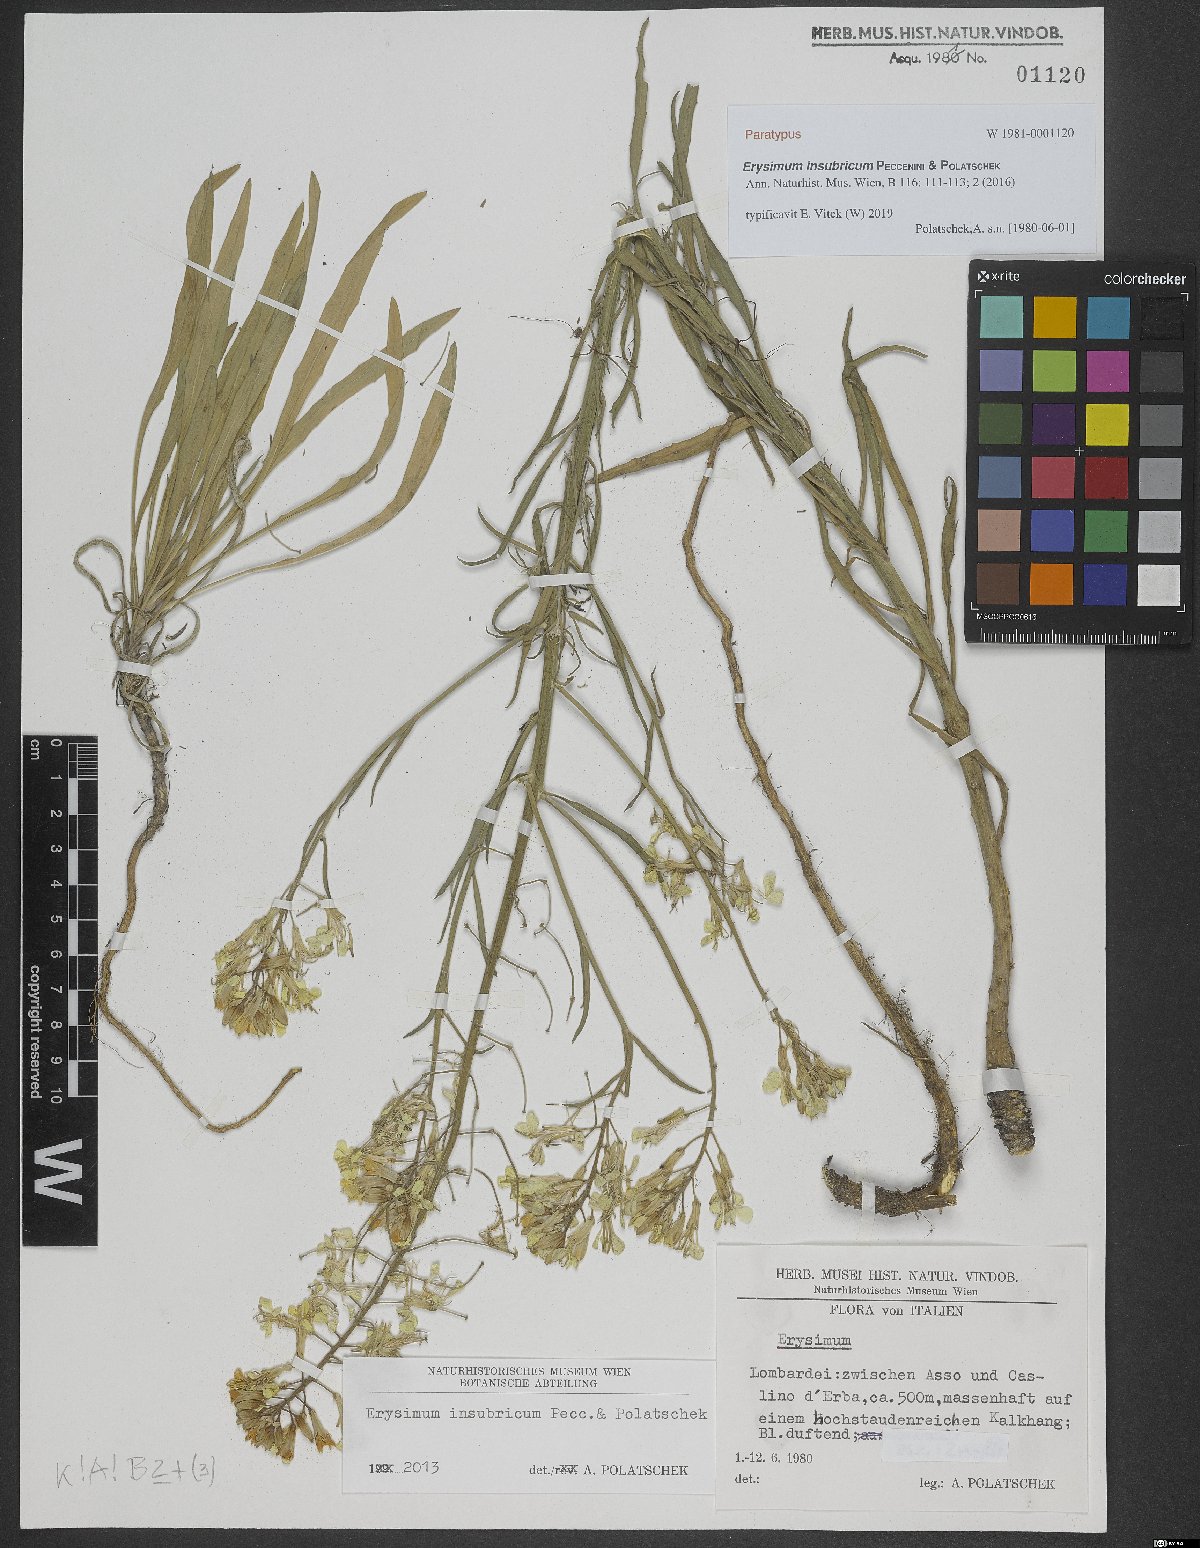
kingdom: Plantae
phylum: Tracheophyta
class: Magnoliopsida
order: Brassicales
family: Brassicaceae
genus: Erysimum
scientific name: Erysimum insubricum
